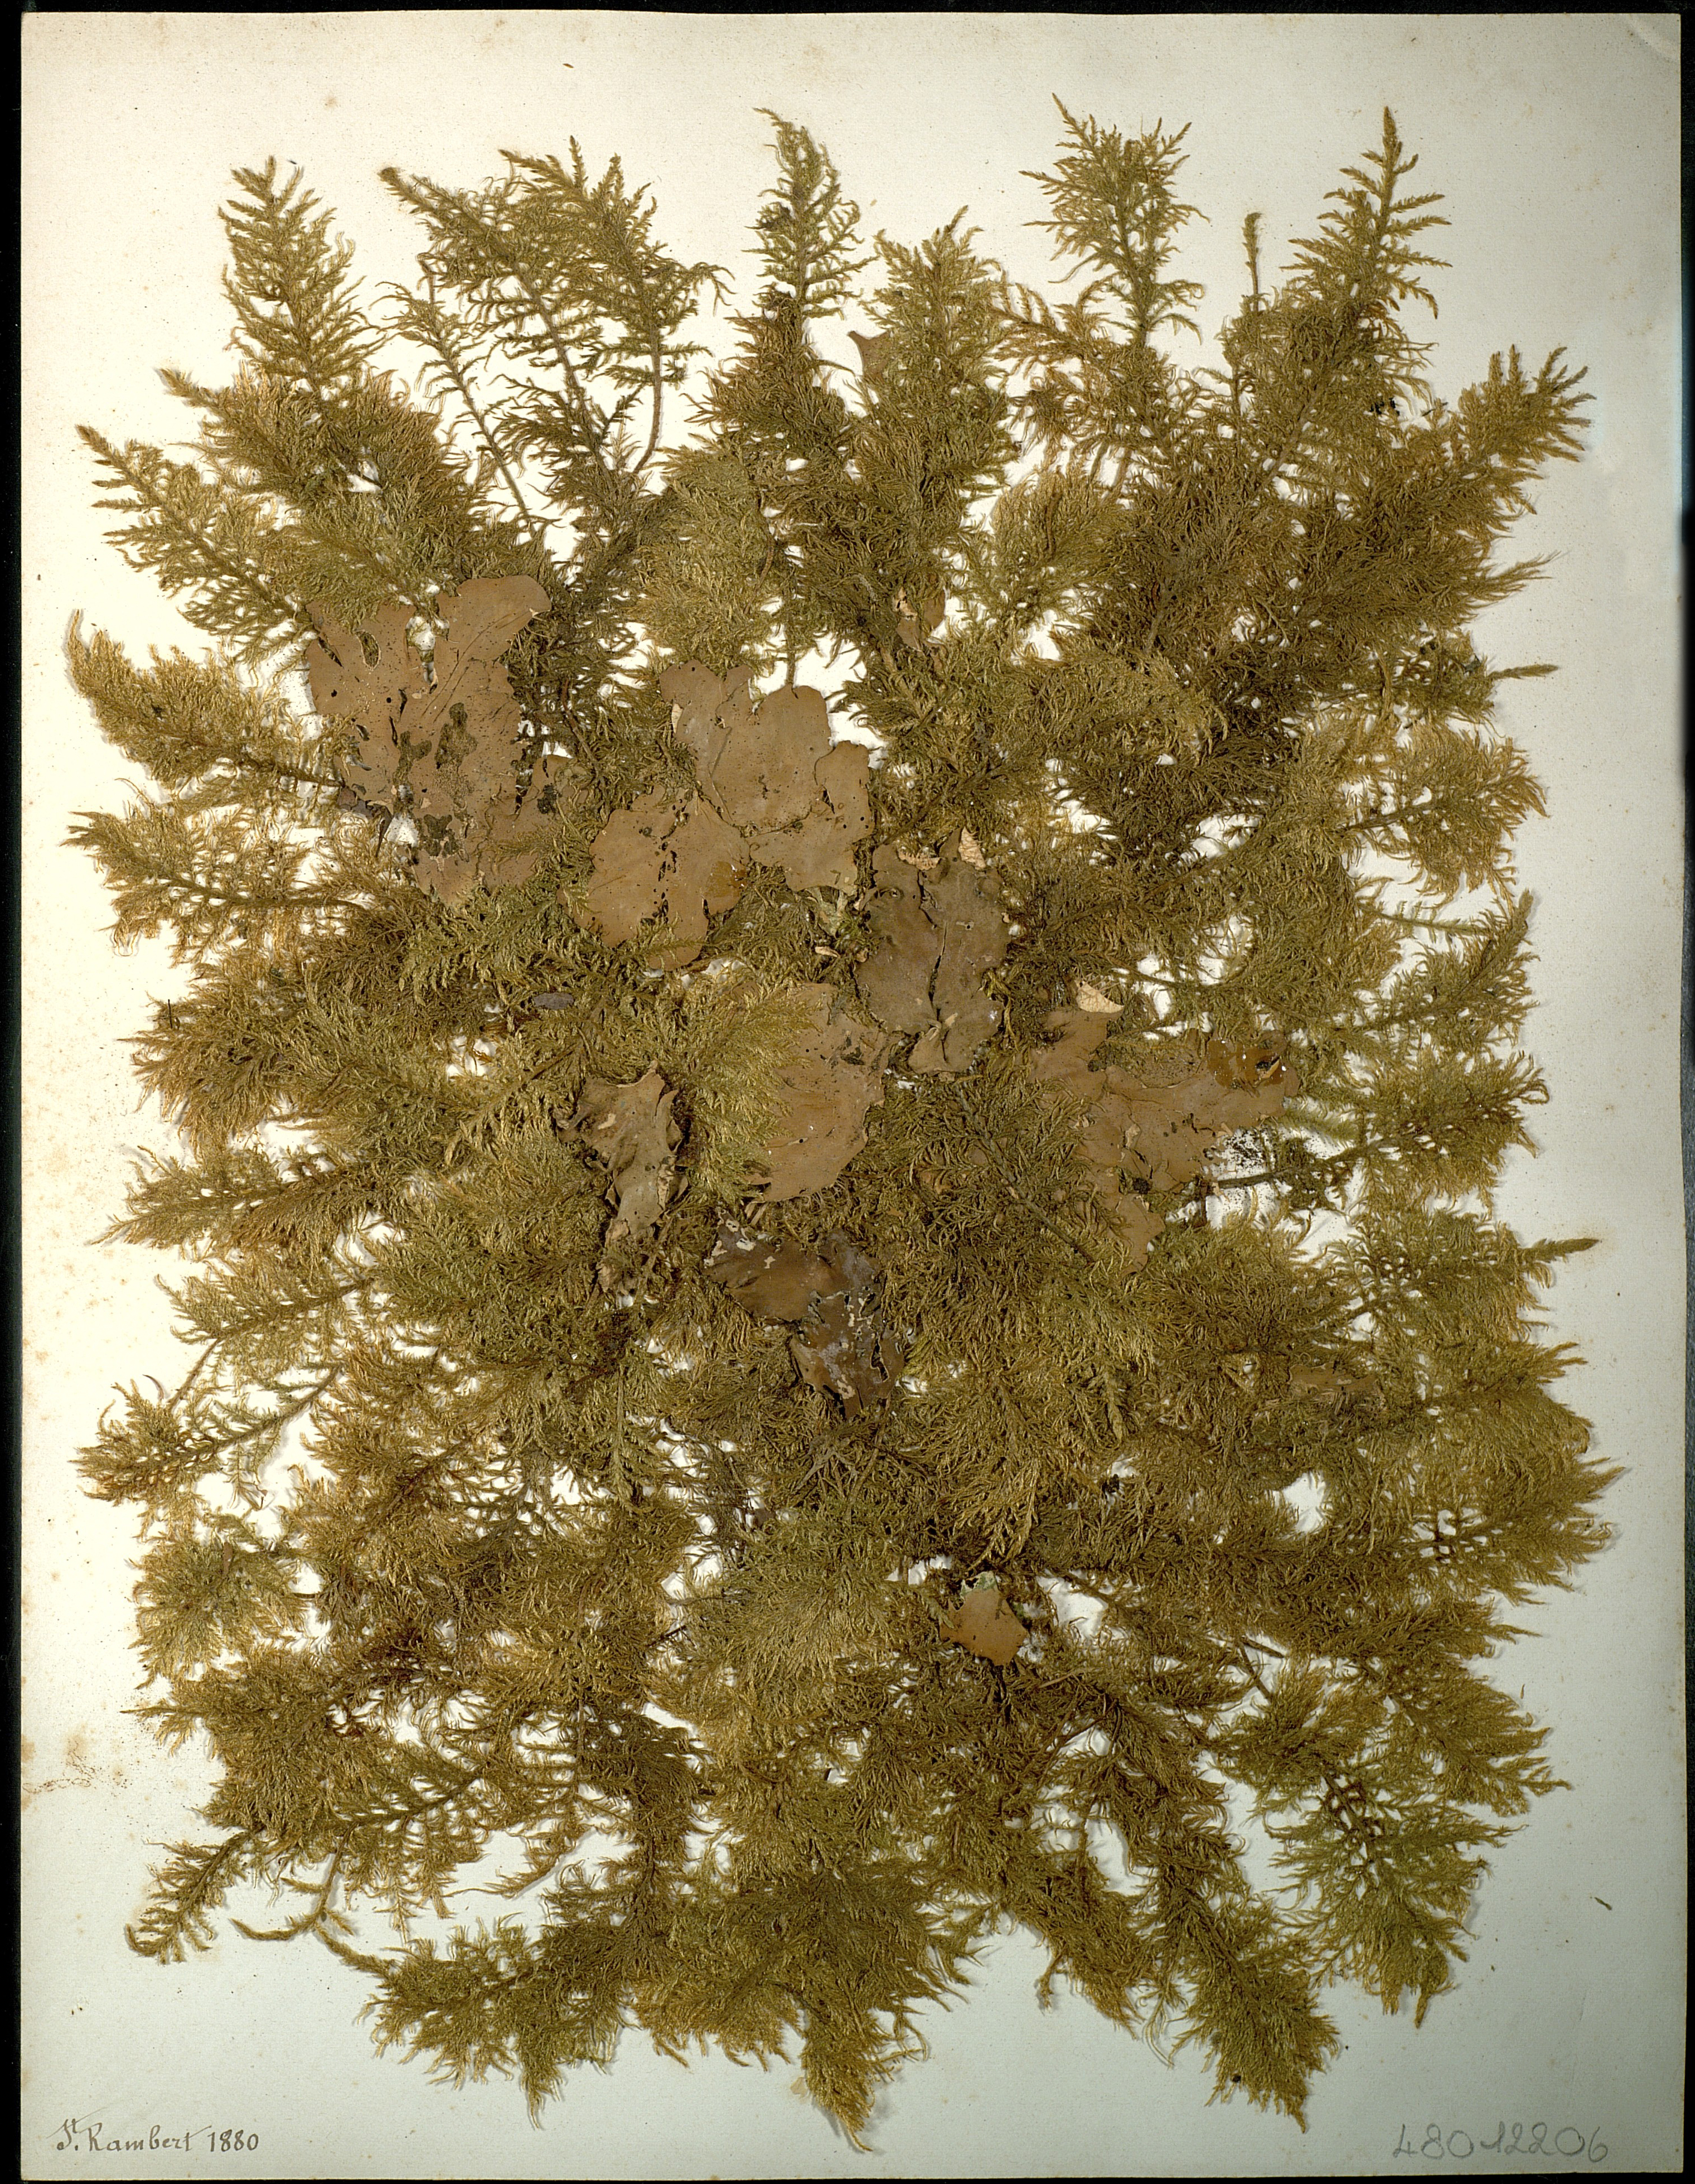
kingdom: Fungi
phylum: Ascomycota
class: Lecanoromycetes
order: Peltigerales
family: Peltigeraceae
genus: Peltigera
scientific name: Peltigera
